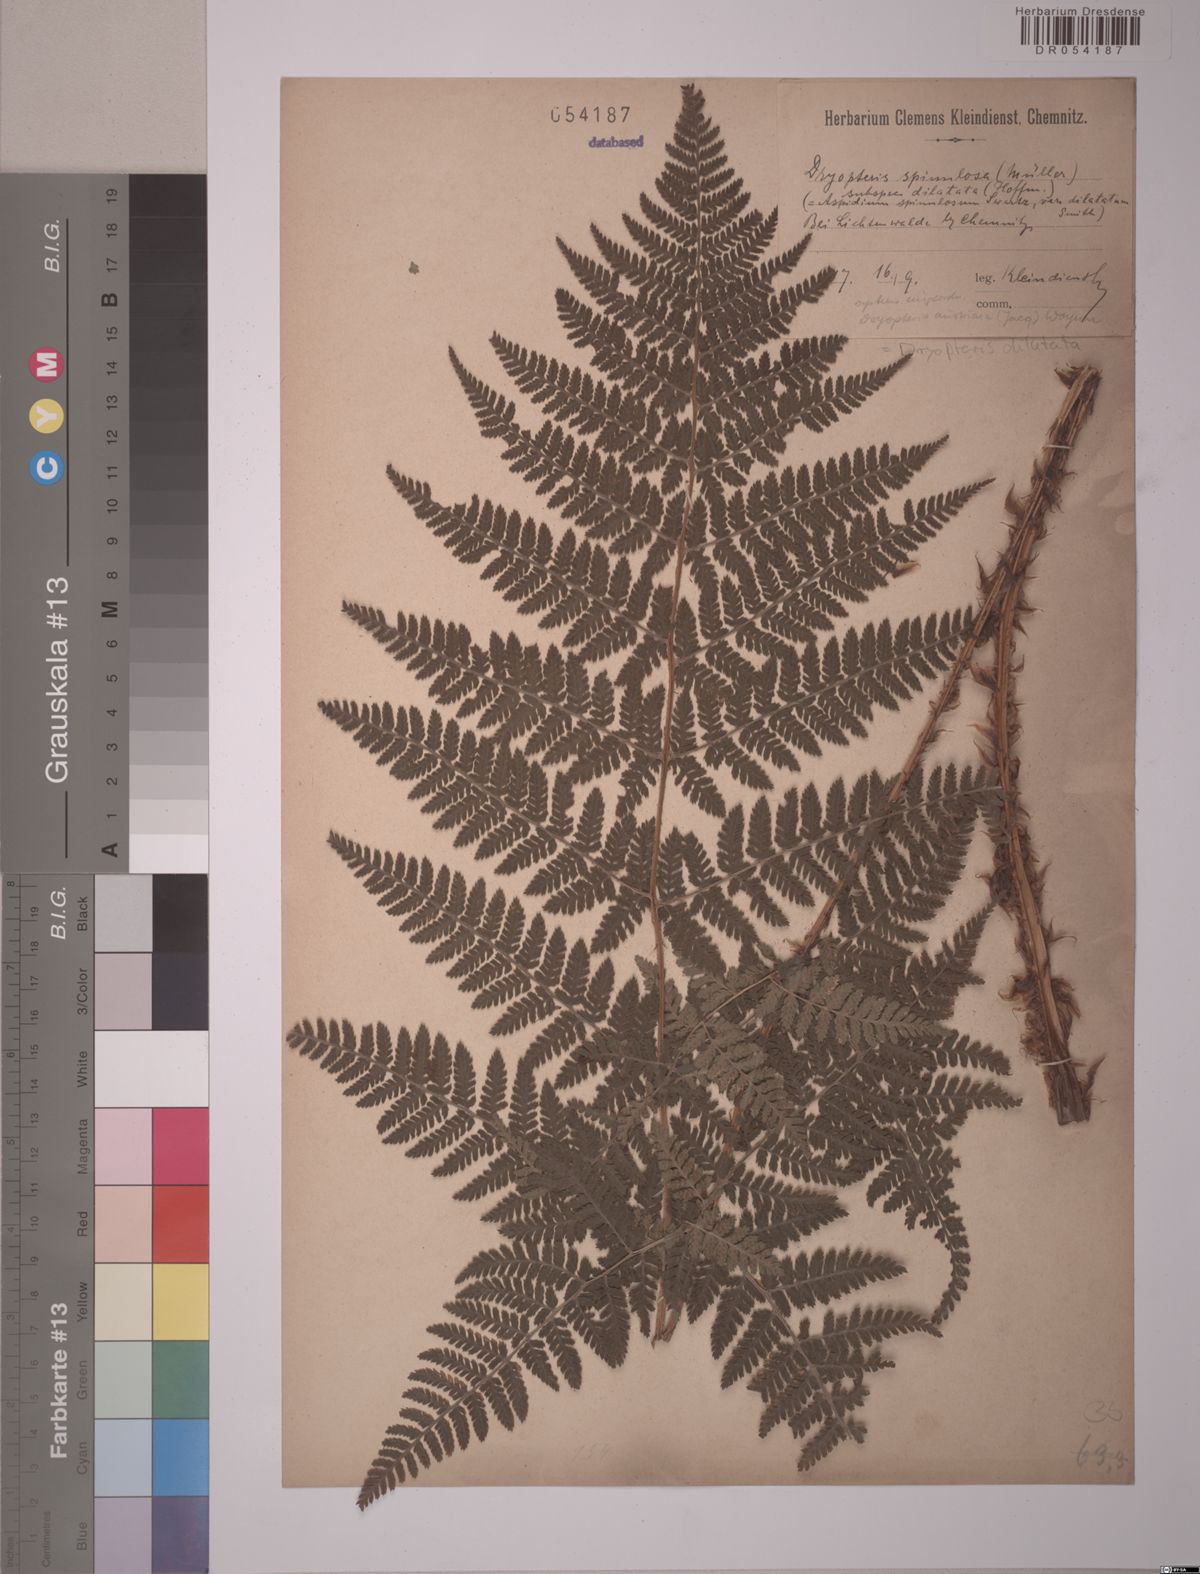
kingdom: Plantae
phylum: Tracheophyta
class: Polypodiopsida
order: Polypodiales
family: Dryopteridaceae
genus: Dryopteris
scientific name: Dryopteris dilatata
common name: Broad buckler-fern
